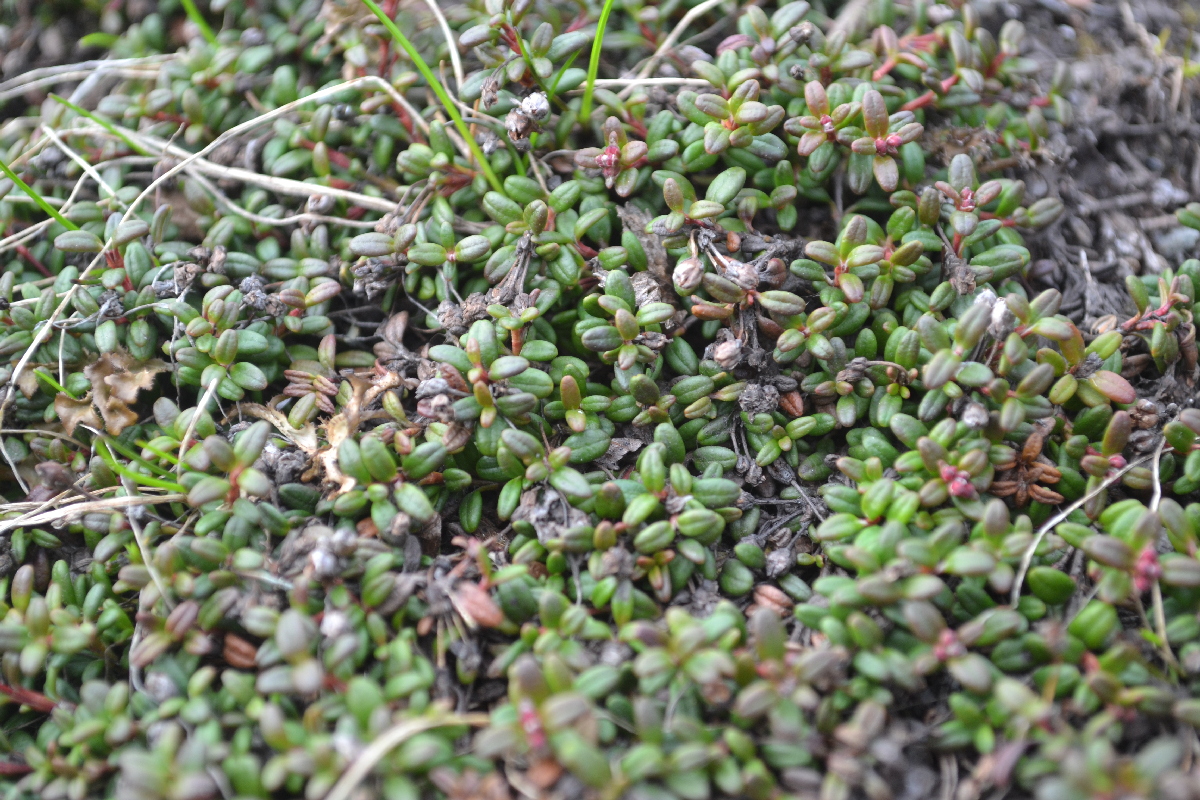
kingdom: Plantae
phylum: Tracheophyta
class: Magnoliopsida
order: Ericales
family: Ericaceae
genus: Kalmia
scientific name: Kalmia procumbens
